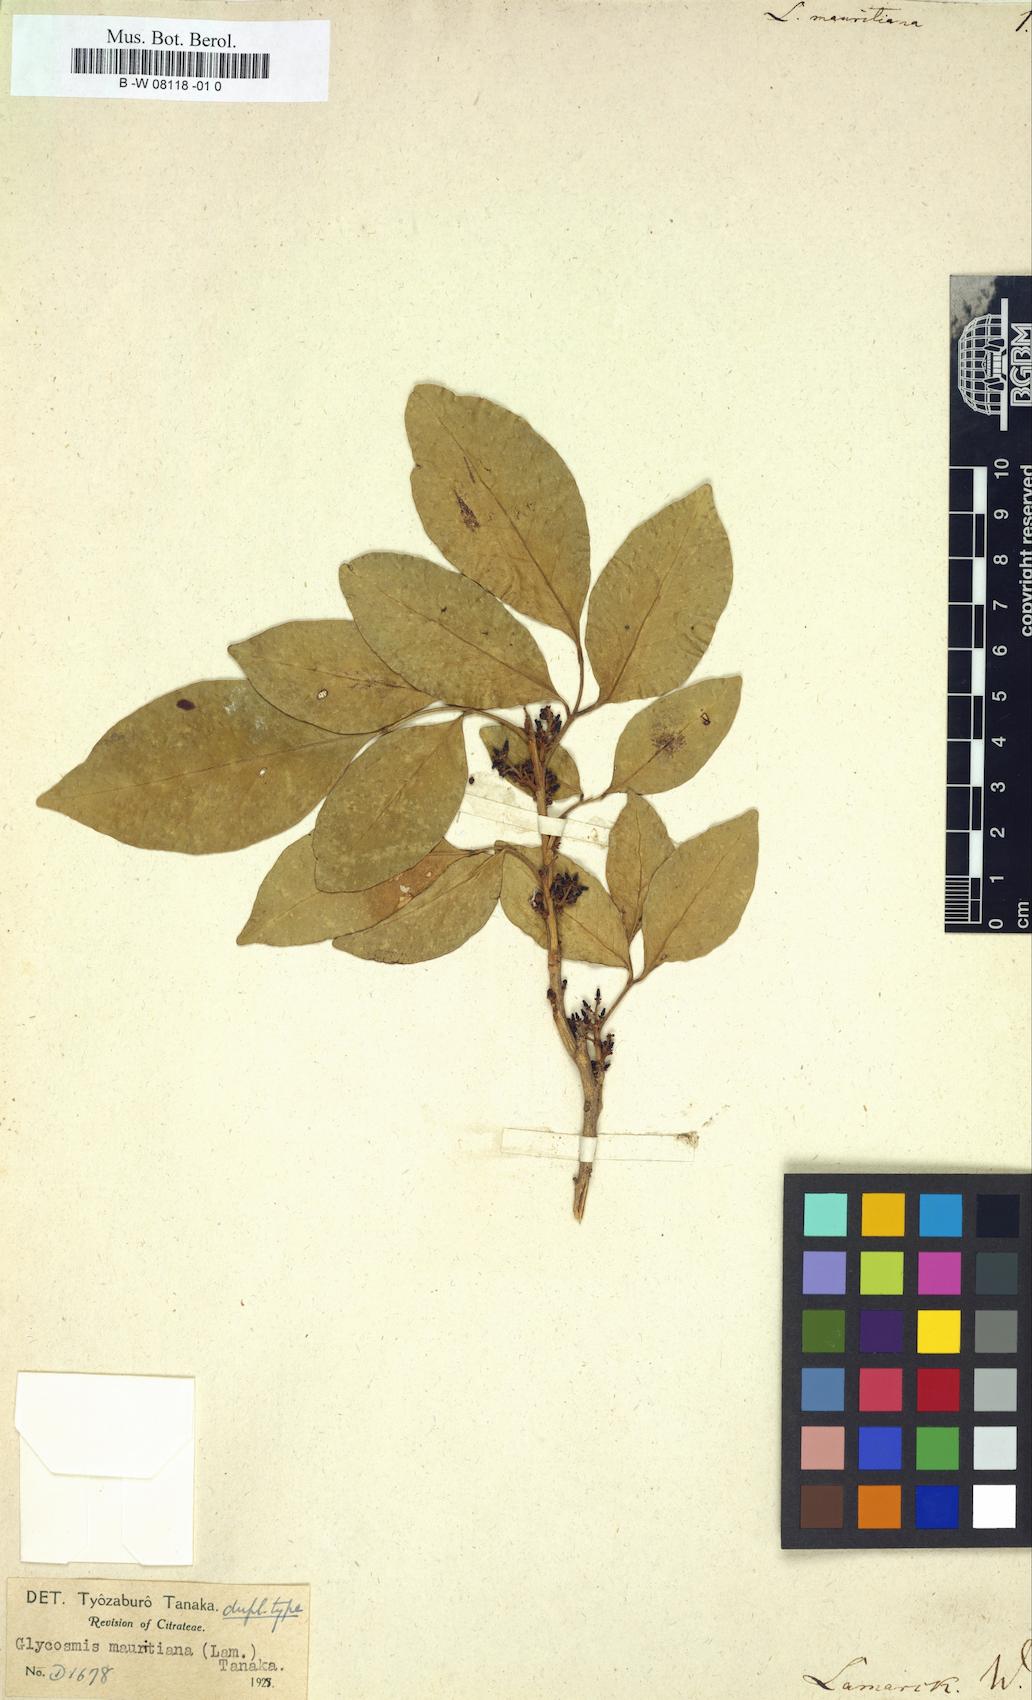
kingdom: Plantae
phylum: Tracheophyta
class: Magnoliopsida
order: Sapindales
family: Rutaceae
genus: Limonia
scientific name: Limonia
